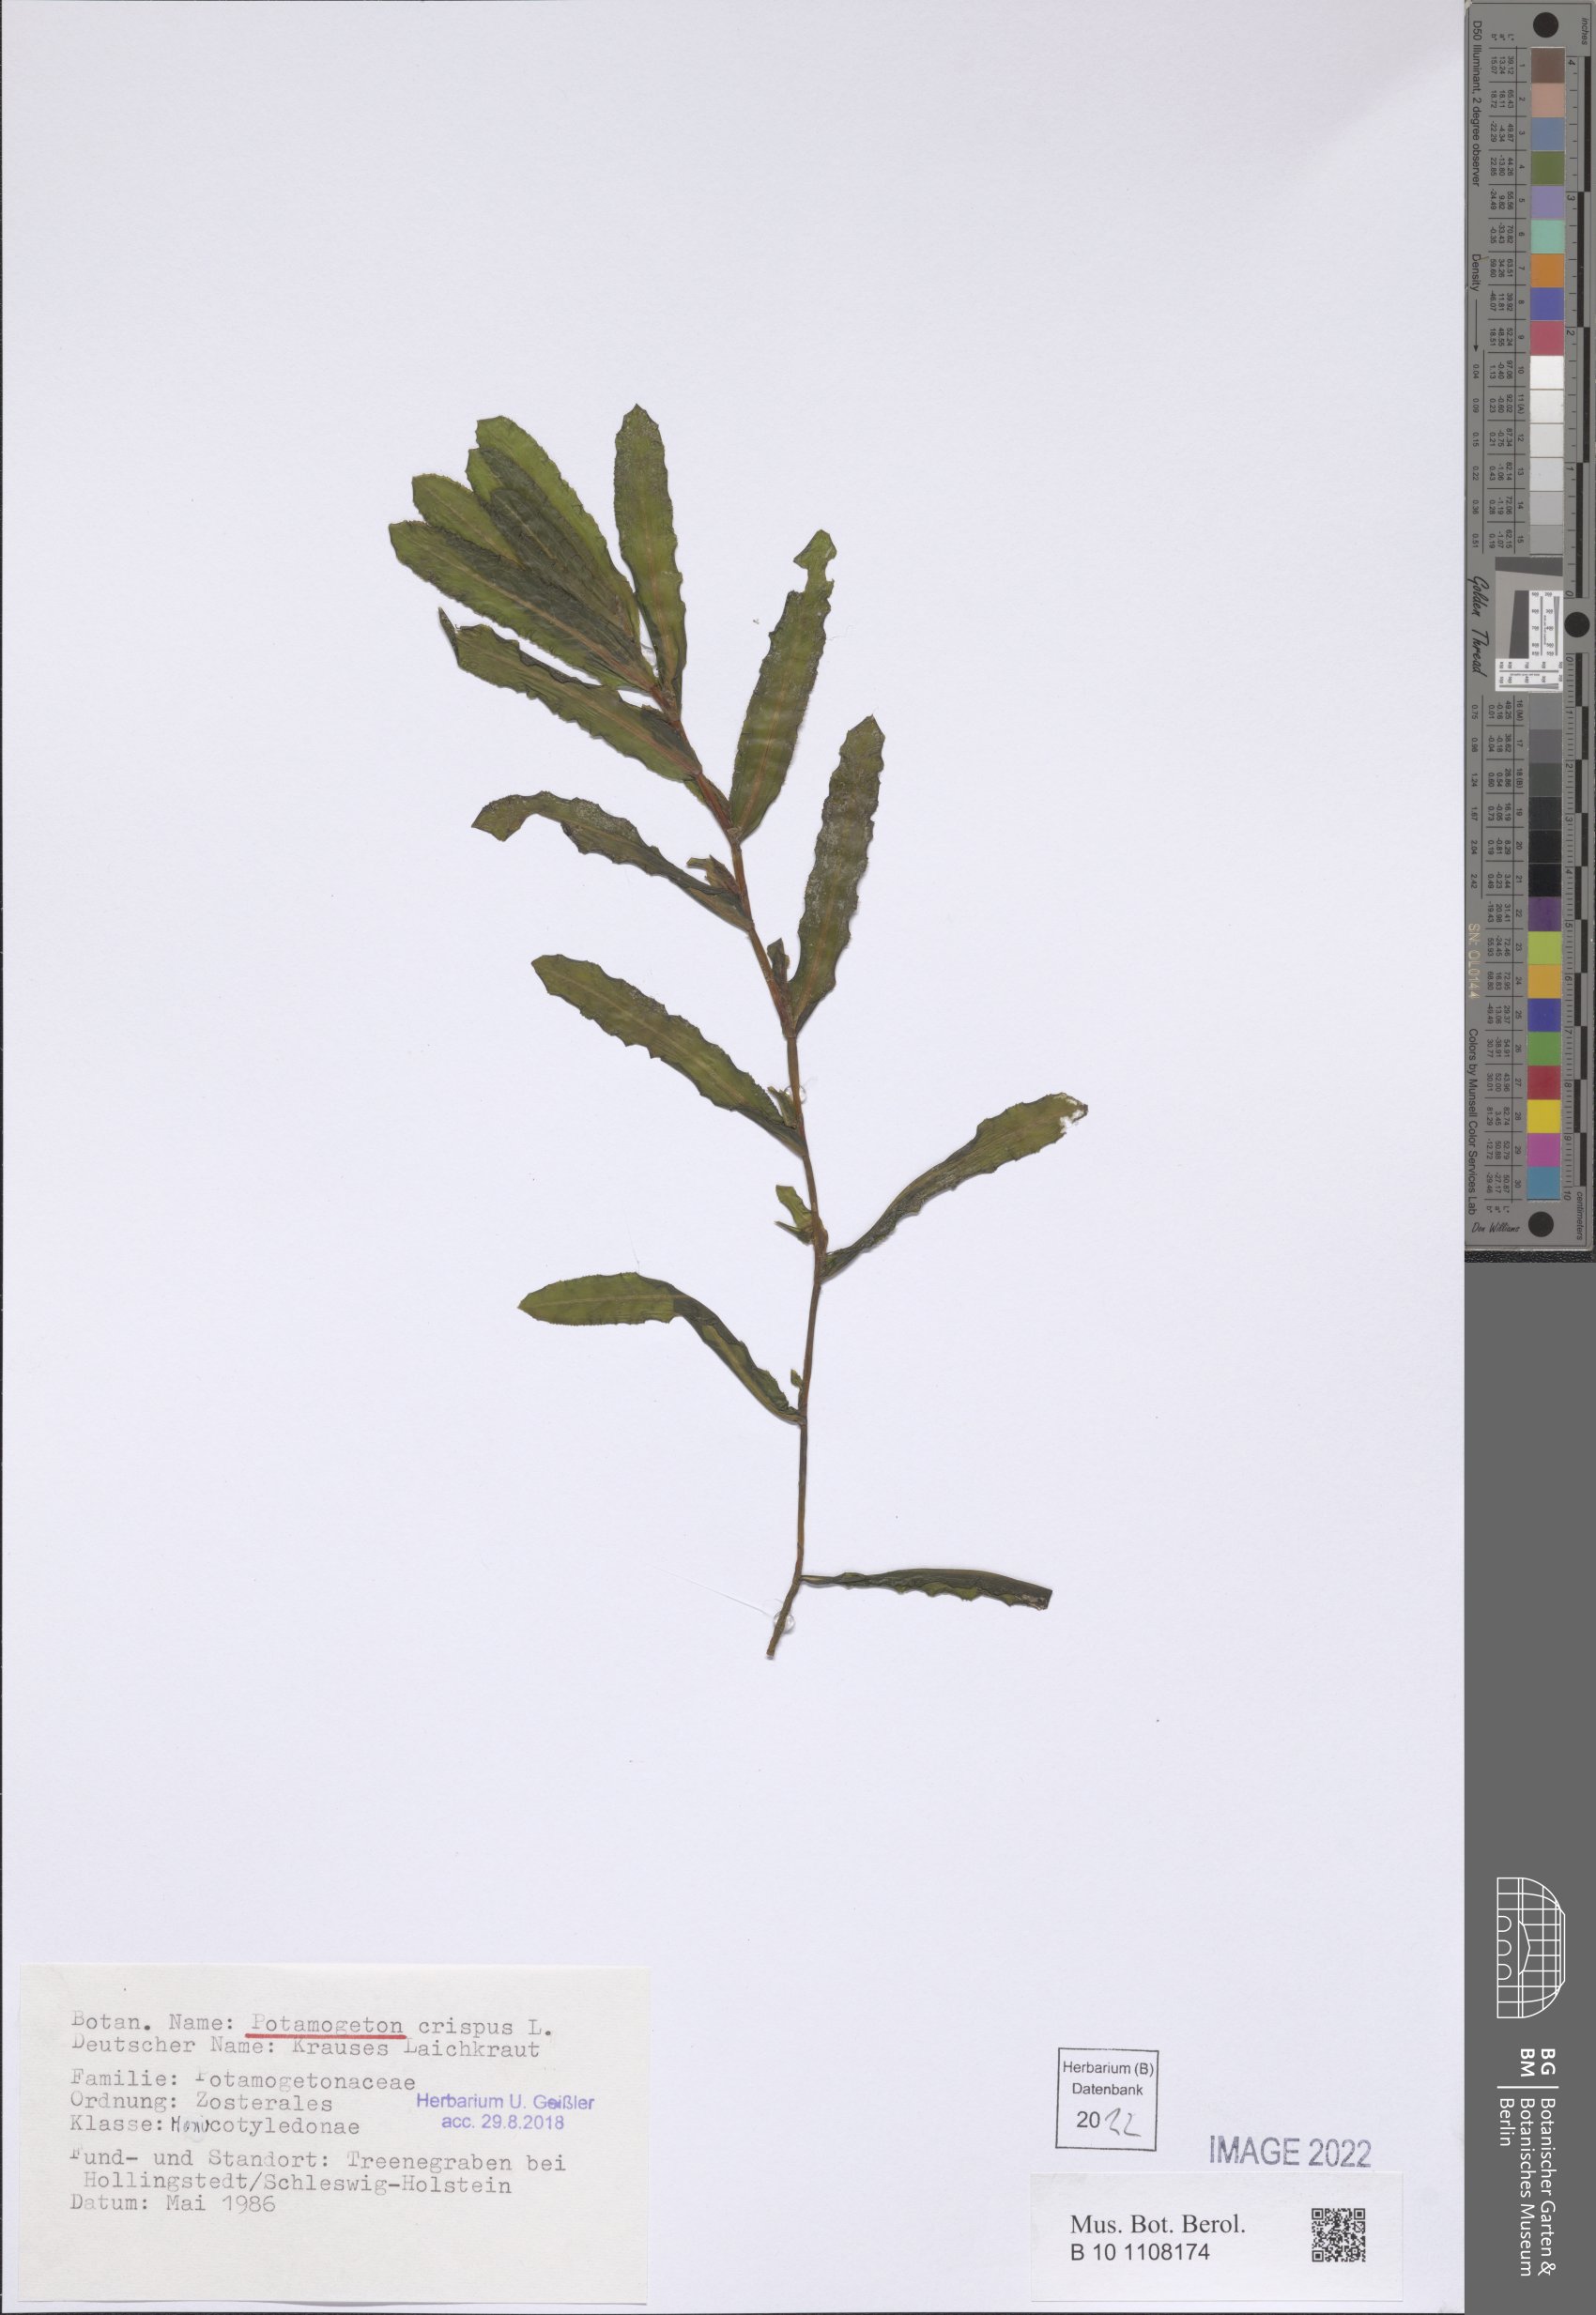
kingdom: Plantae
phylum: Tracheophyta
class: Liliopsida
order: Alismatales
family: Potamogetonaceae
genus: Potamogeton
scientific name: Potamogeton crispus
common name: Curled pondweed
